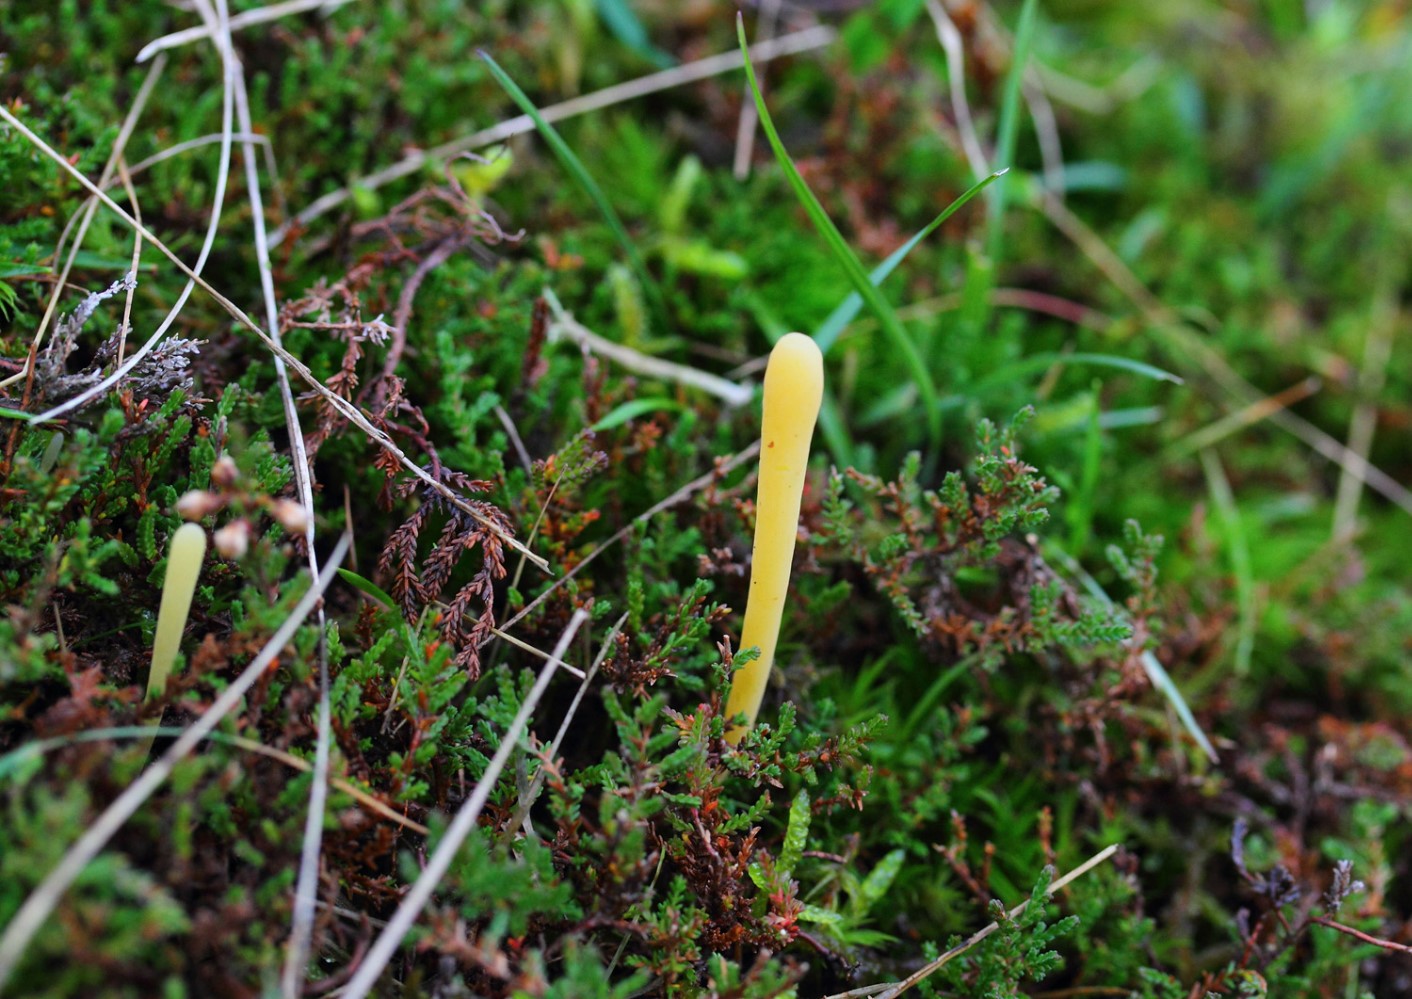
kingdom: Fungi
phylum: Basidiomycota
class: Agaricomycetes
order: Agaricales
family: Clavariaceae
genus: Clavaria
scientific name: Clavaria argillacea
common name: lerfarvet køllesvamp
